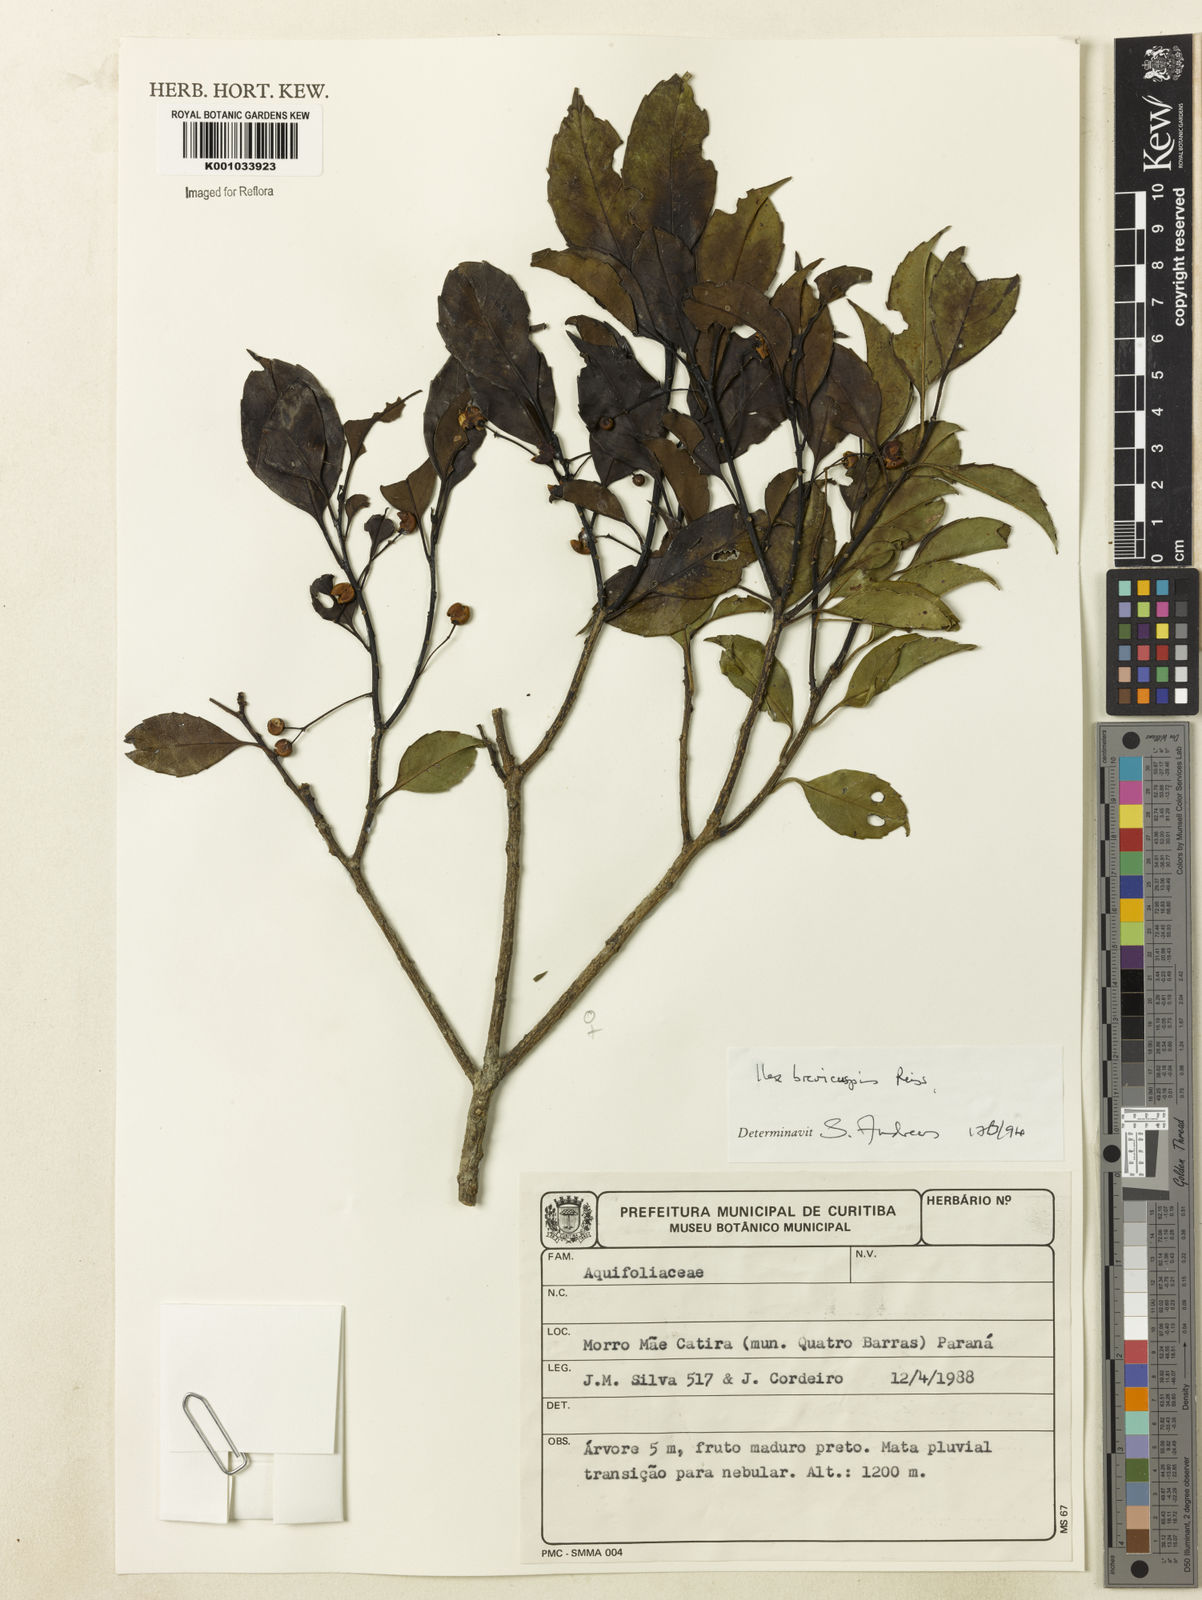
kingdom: Plantae
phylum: Tracheophyta
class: Magnoliopsida
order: Aquifoliales
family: Aquifoliaceae
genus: Ilex
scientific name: Ilex brevicuspis
